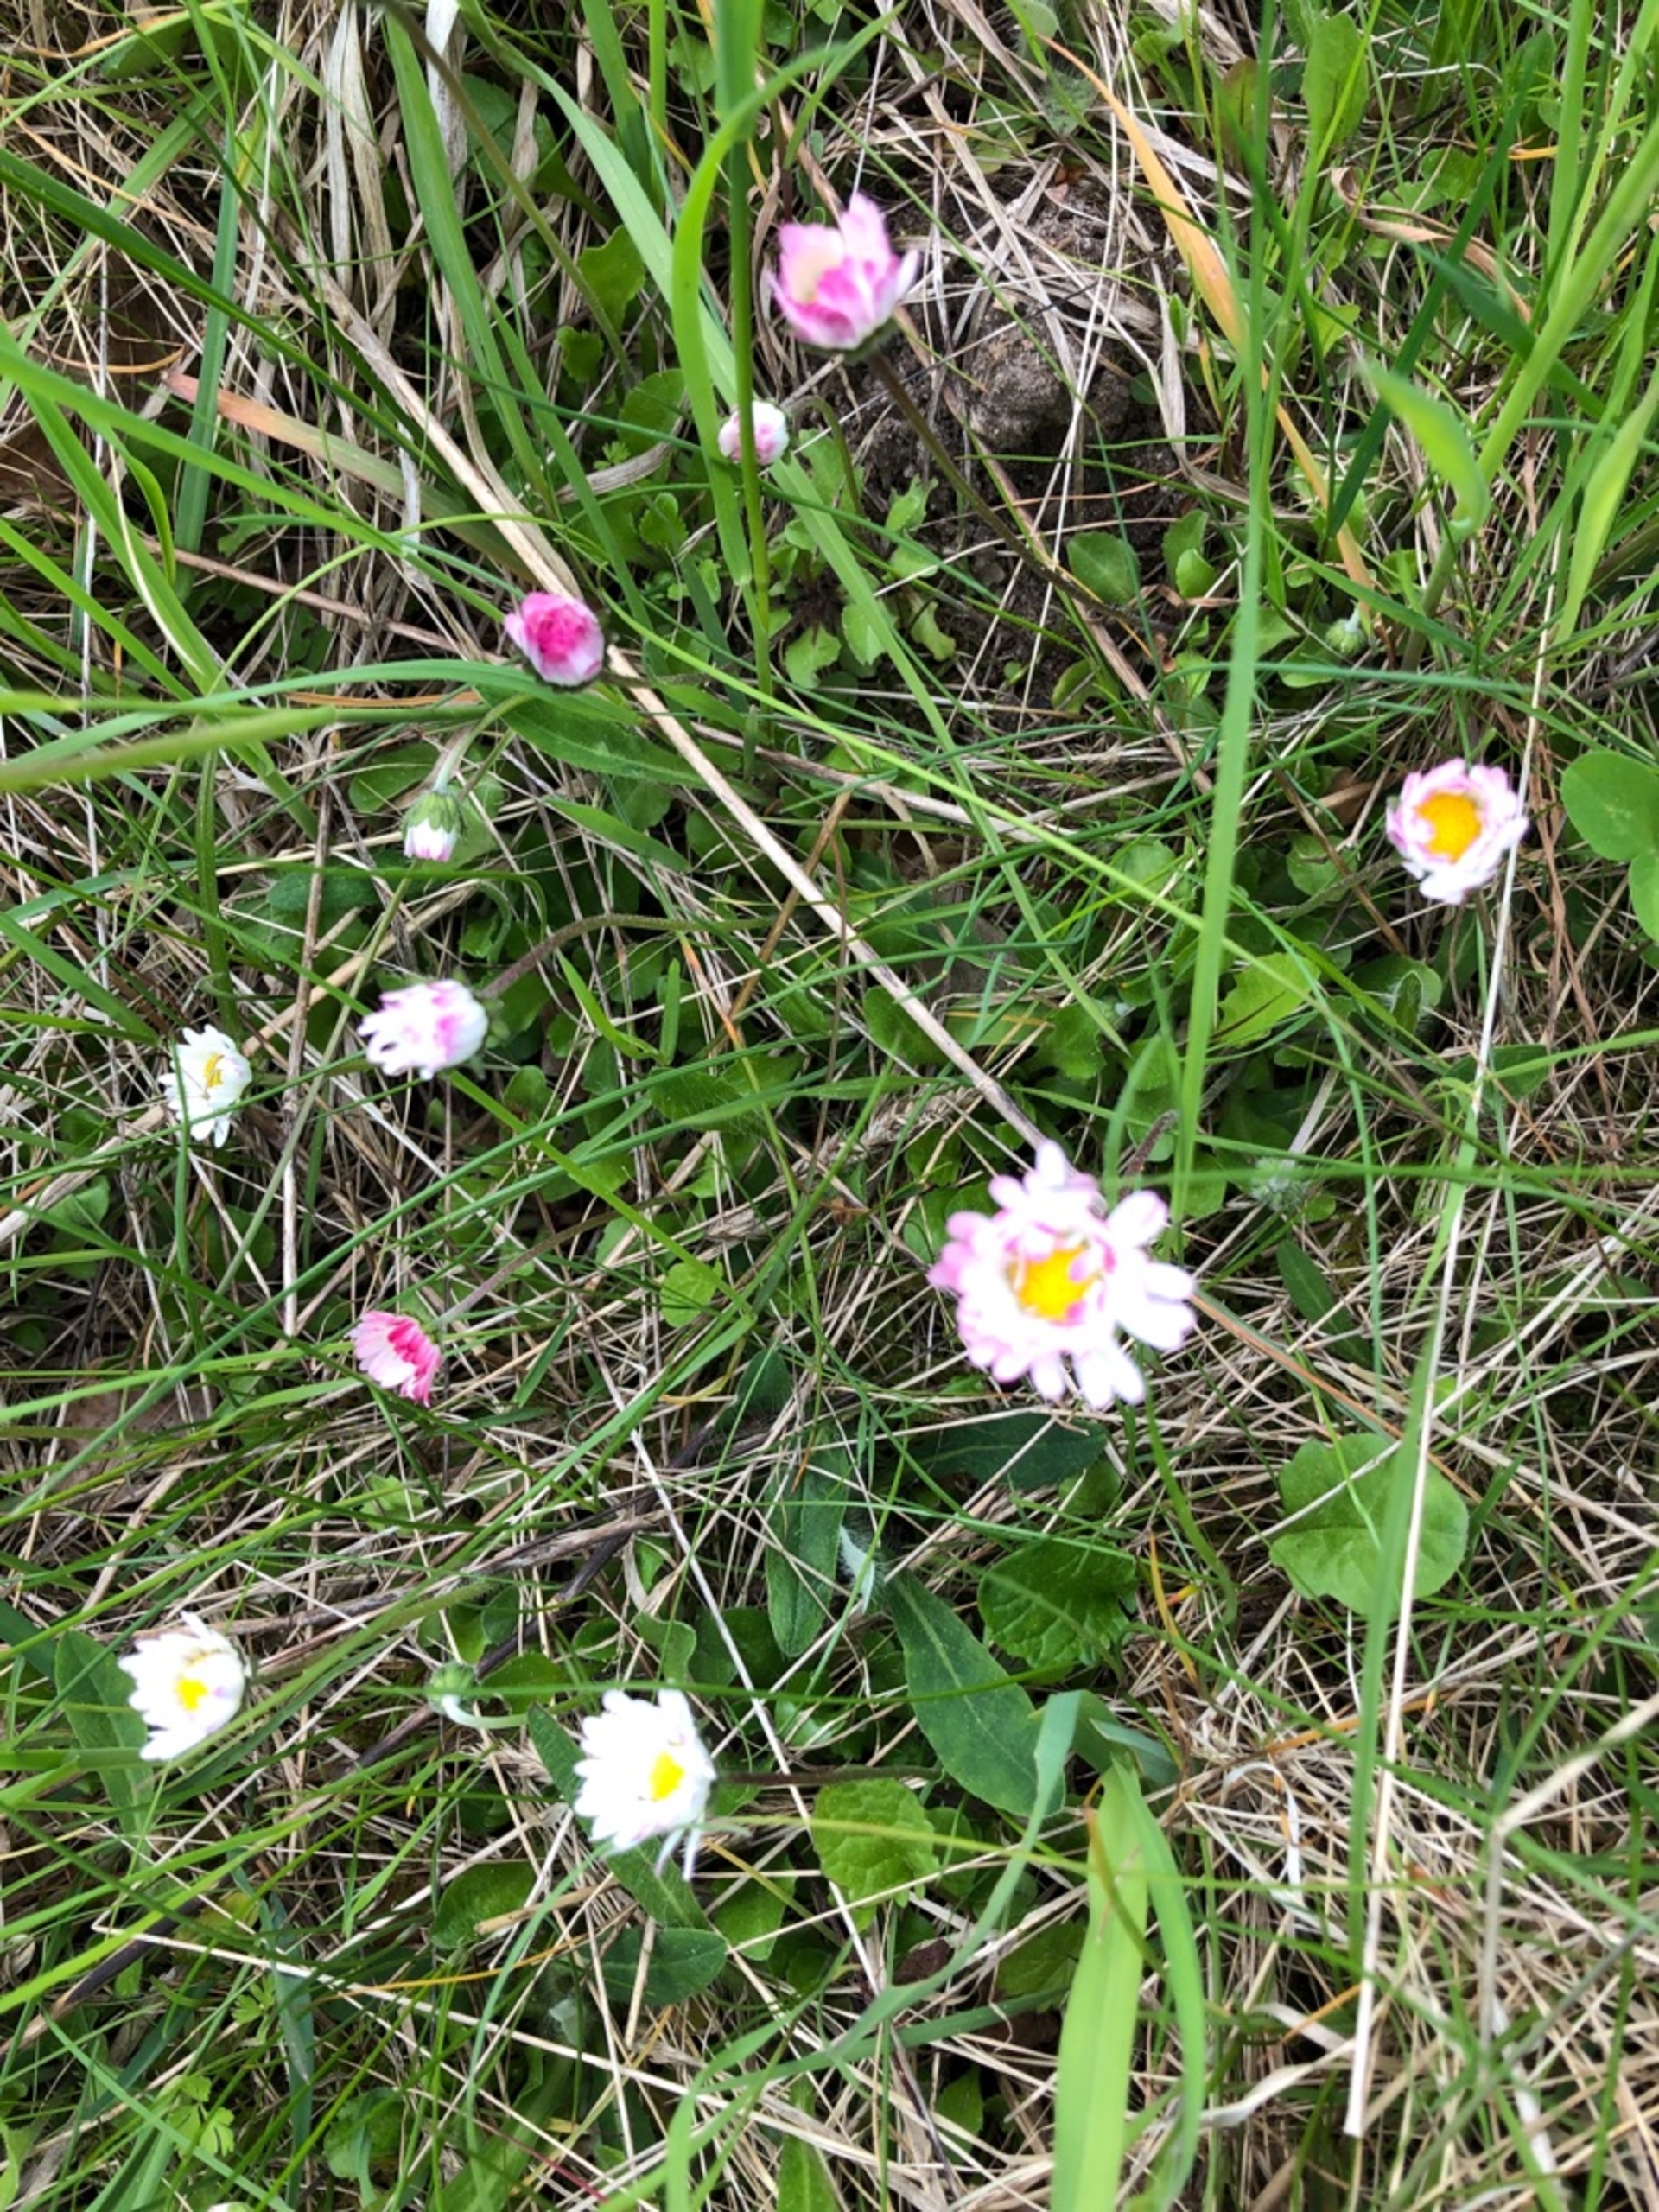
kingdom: Plantae
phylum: Tracheophyta
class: Magnoliopsida
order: Asterales
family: Asteraceae
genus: Bellis
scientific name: Bellis perennis
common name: Tusindfryd
